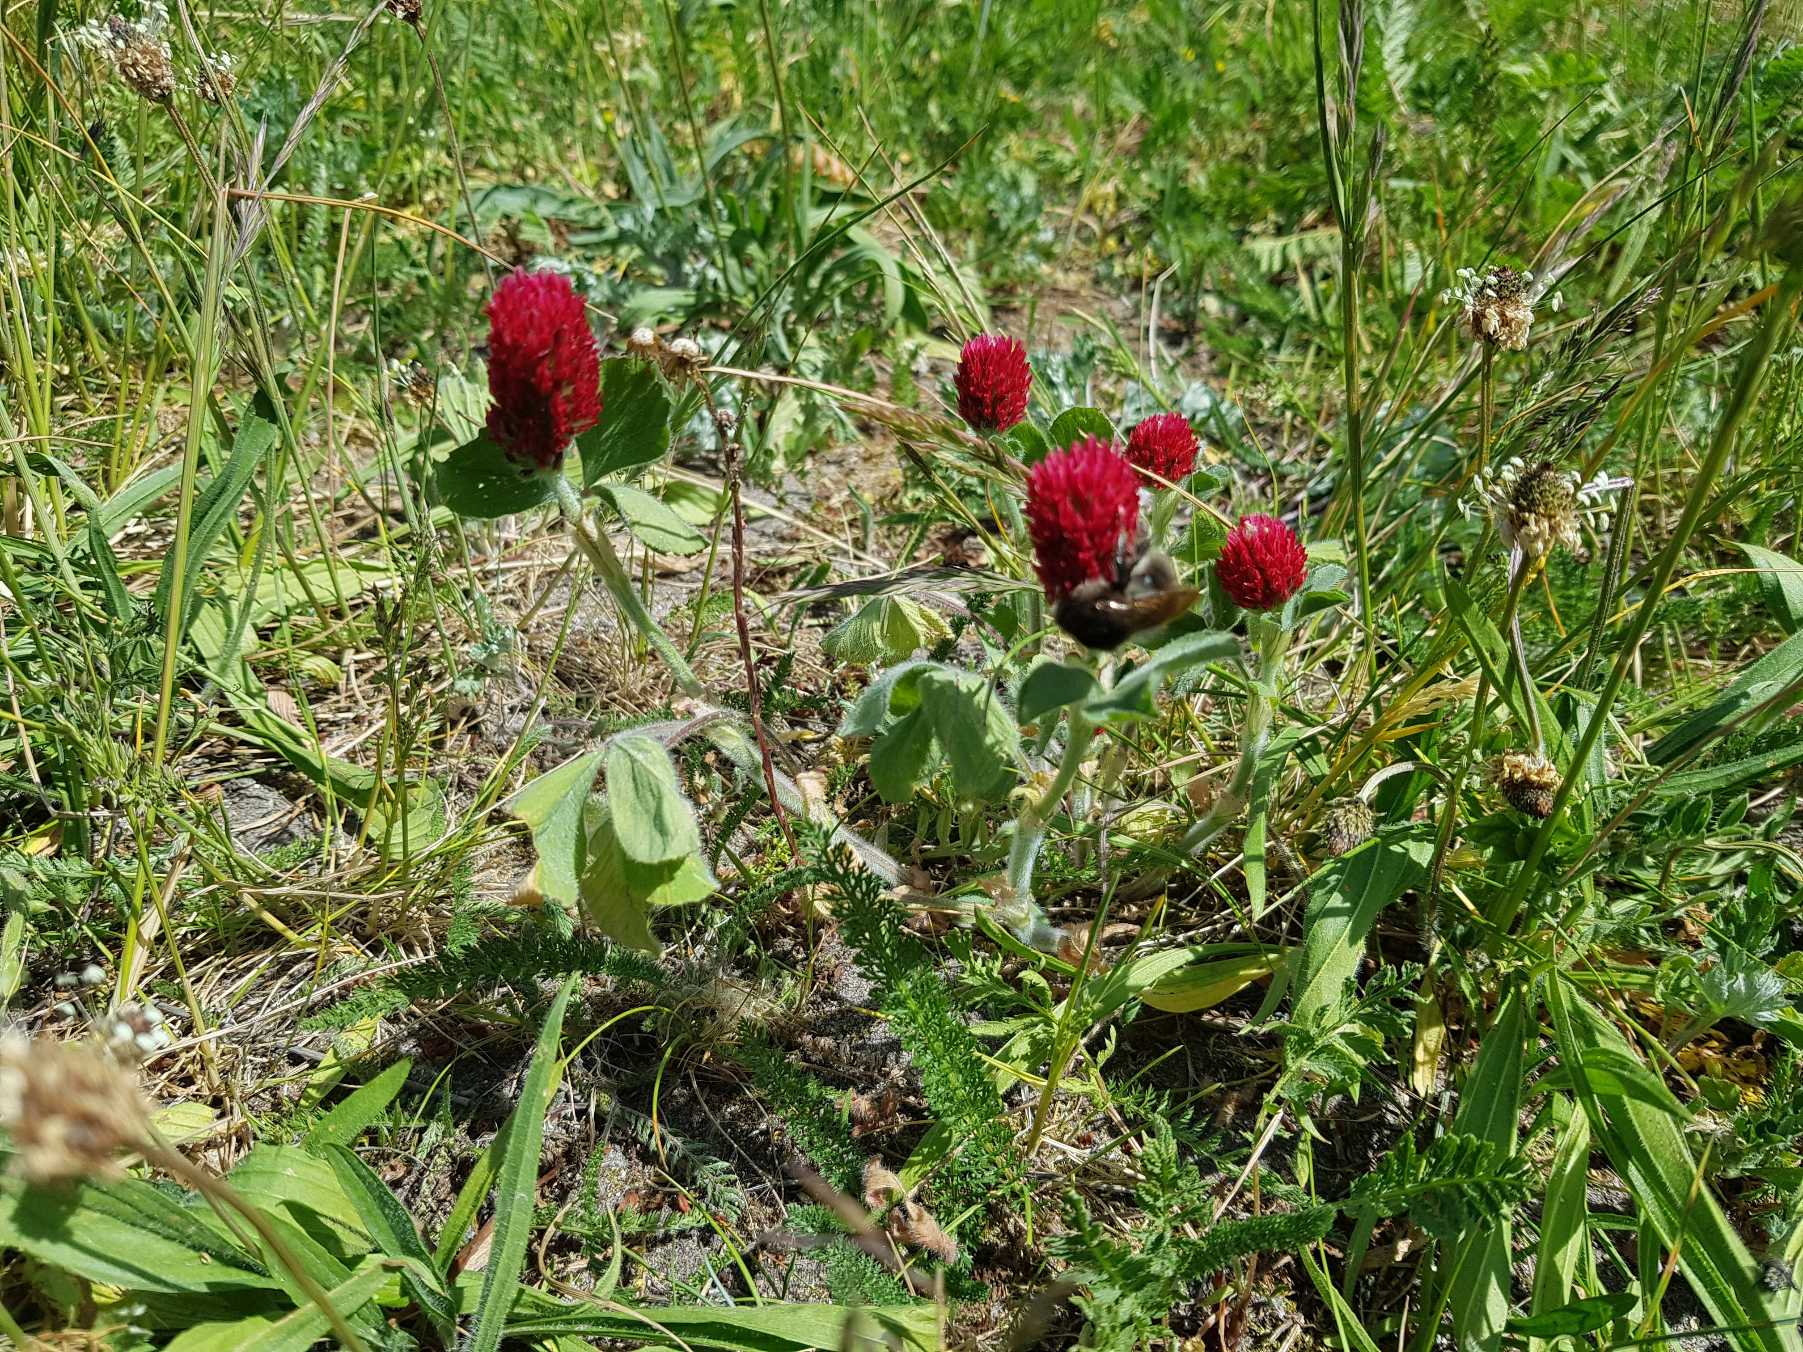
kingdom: Plantae
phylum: Tracheophyta
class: Magnoliopsida
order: Fabales
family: Fabaceae
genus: Trifolium
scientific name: Trifolium incarnatum
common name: Blod-kløver
